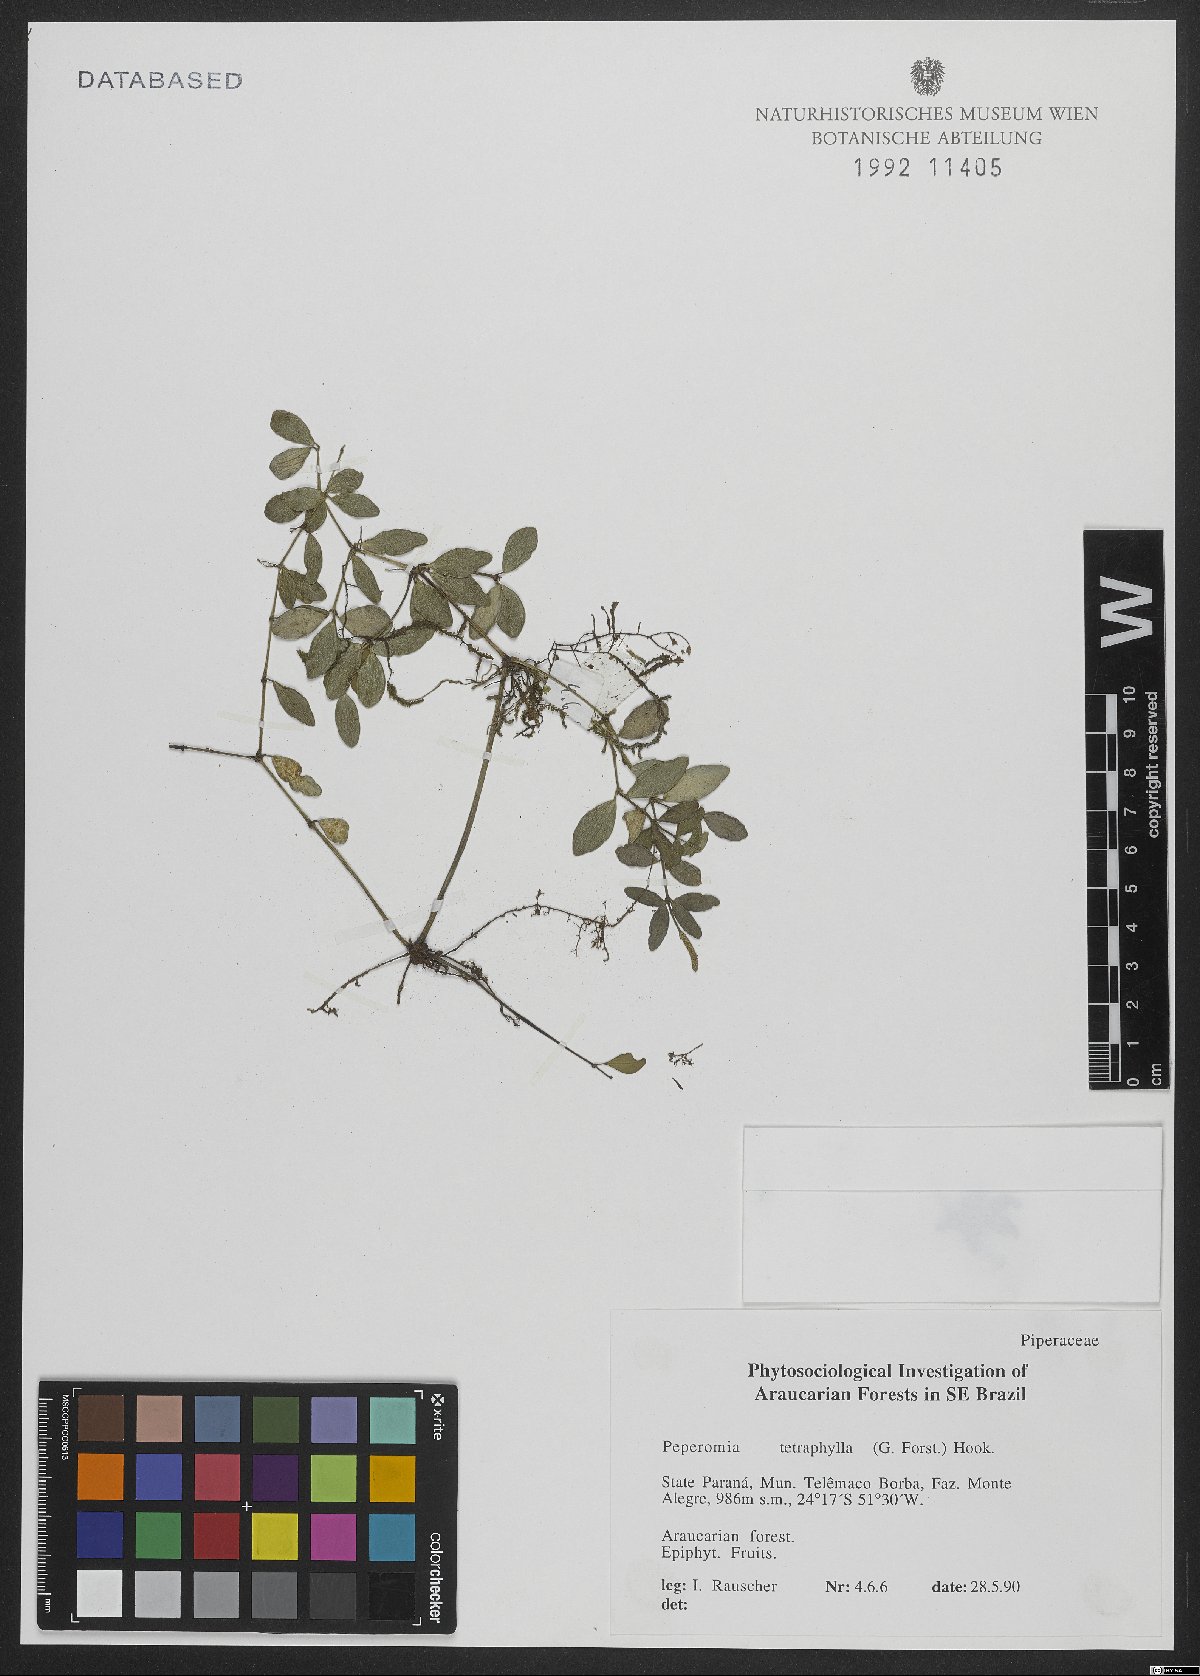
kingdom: Plantae
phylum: Tracheophyta
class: Magnoliopsida
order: Piperales
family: Piperaceae
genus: Peperomia
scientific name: Peperomia tetraphylla
